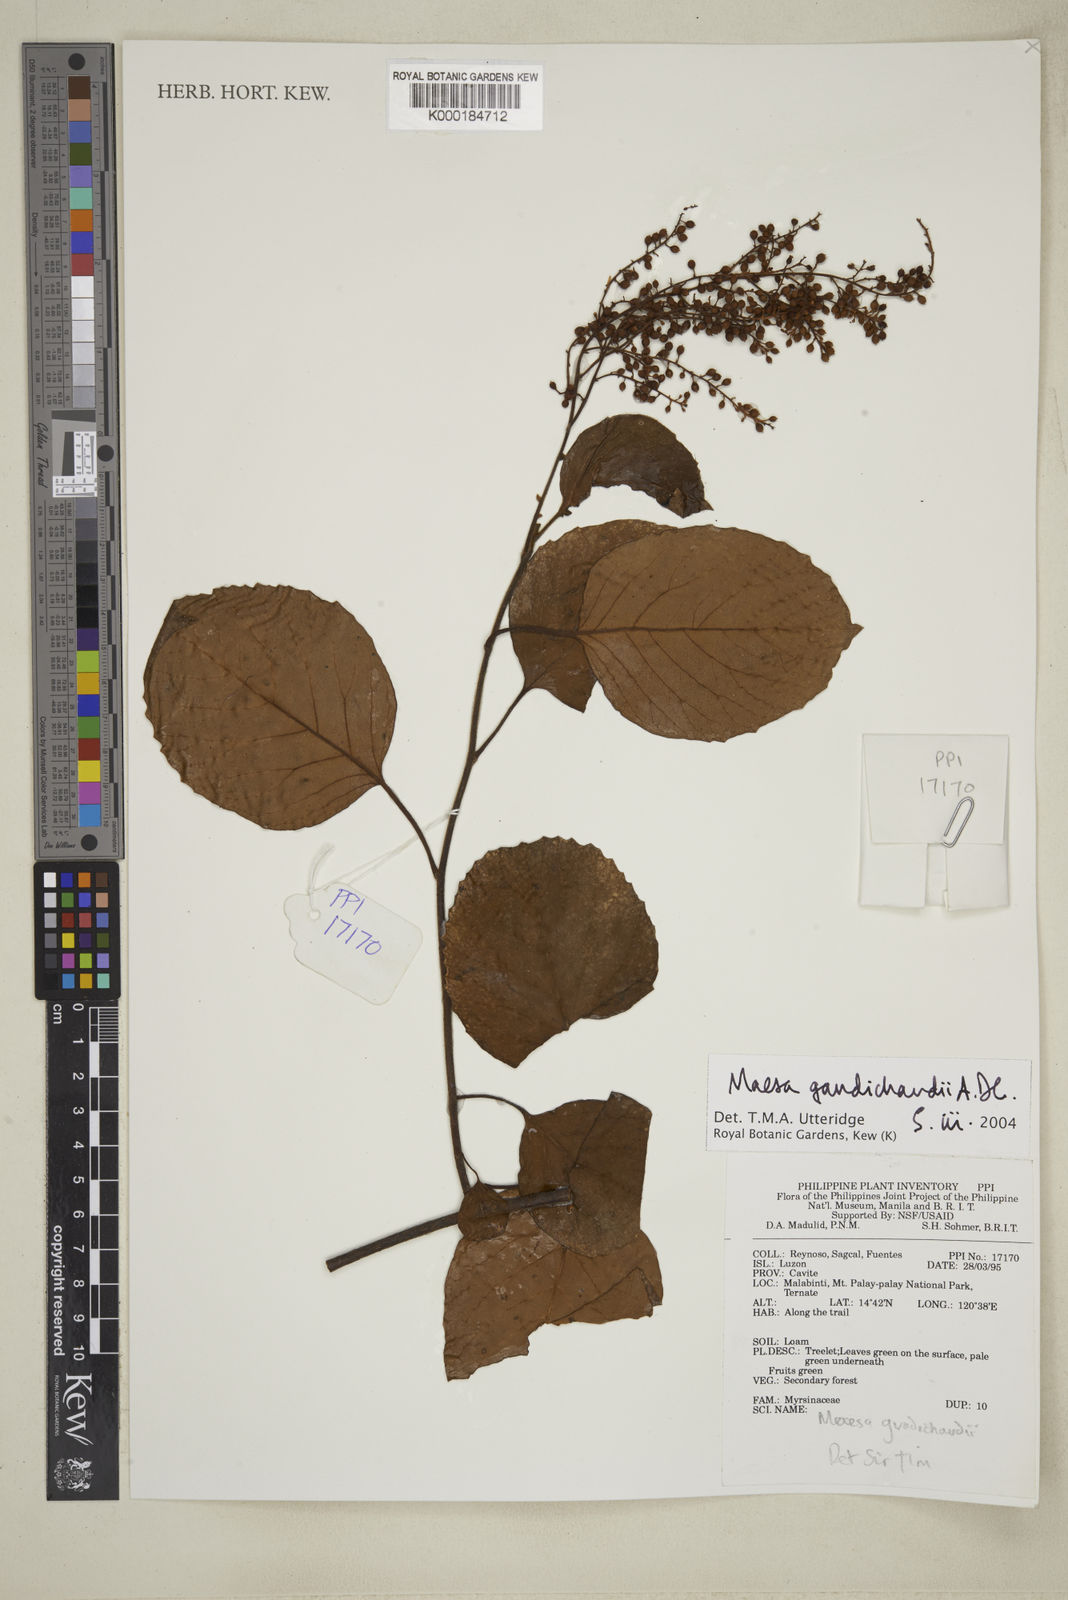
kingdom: Plantae
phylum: Tracheophyta
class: Magnoliopsida
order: Ericales
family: Primulaceae
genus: Maesa
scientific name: Maesa gaudichaudii
